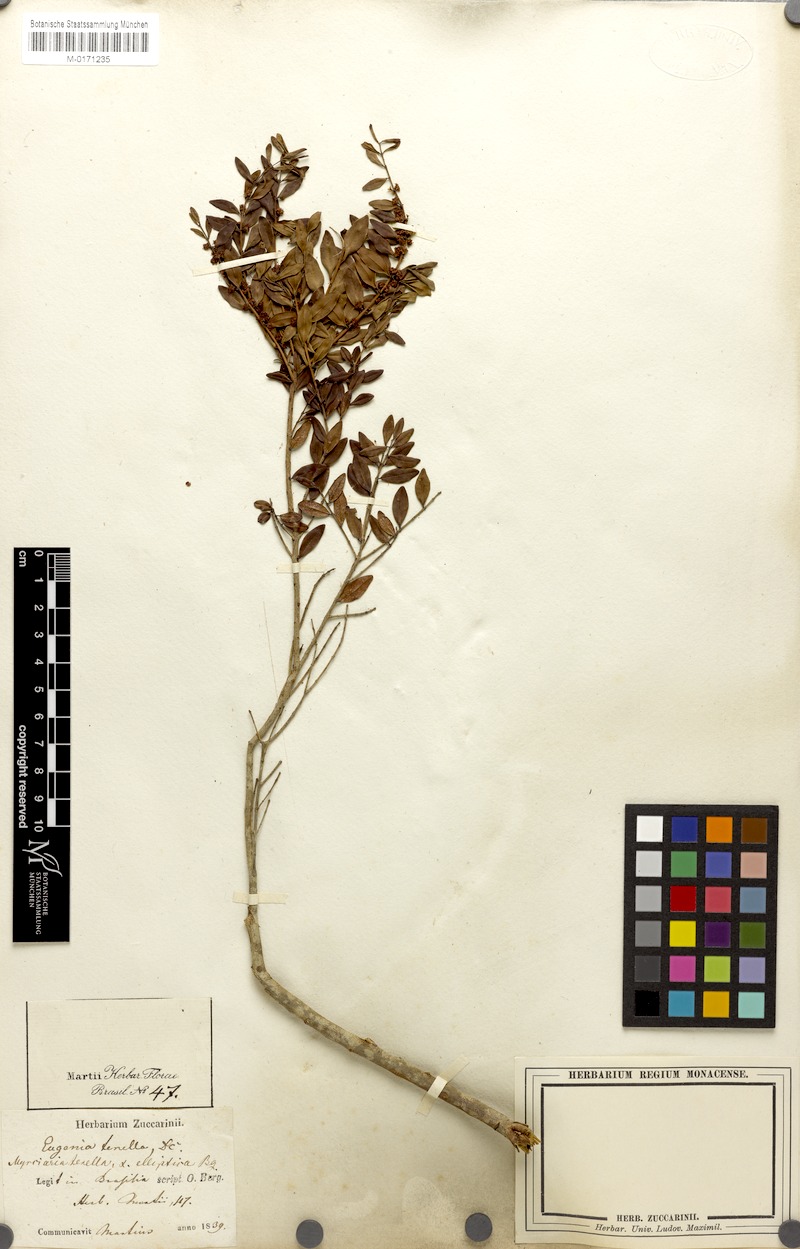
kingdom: Plantae
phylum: Tracheophyta
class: Magnoliopsida
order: Myrtales
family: Myrtaceae
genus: Myrciaria
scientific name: Myrciaria tenella
